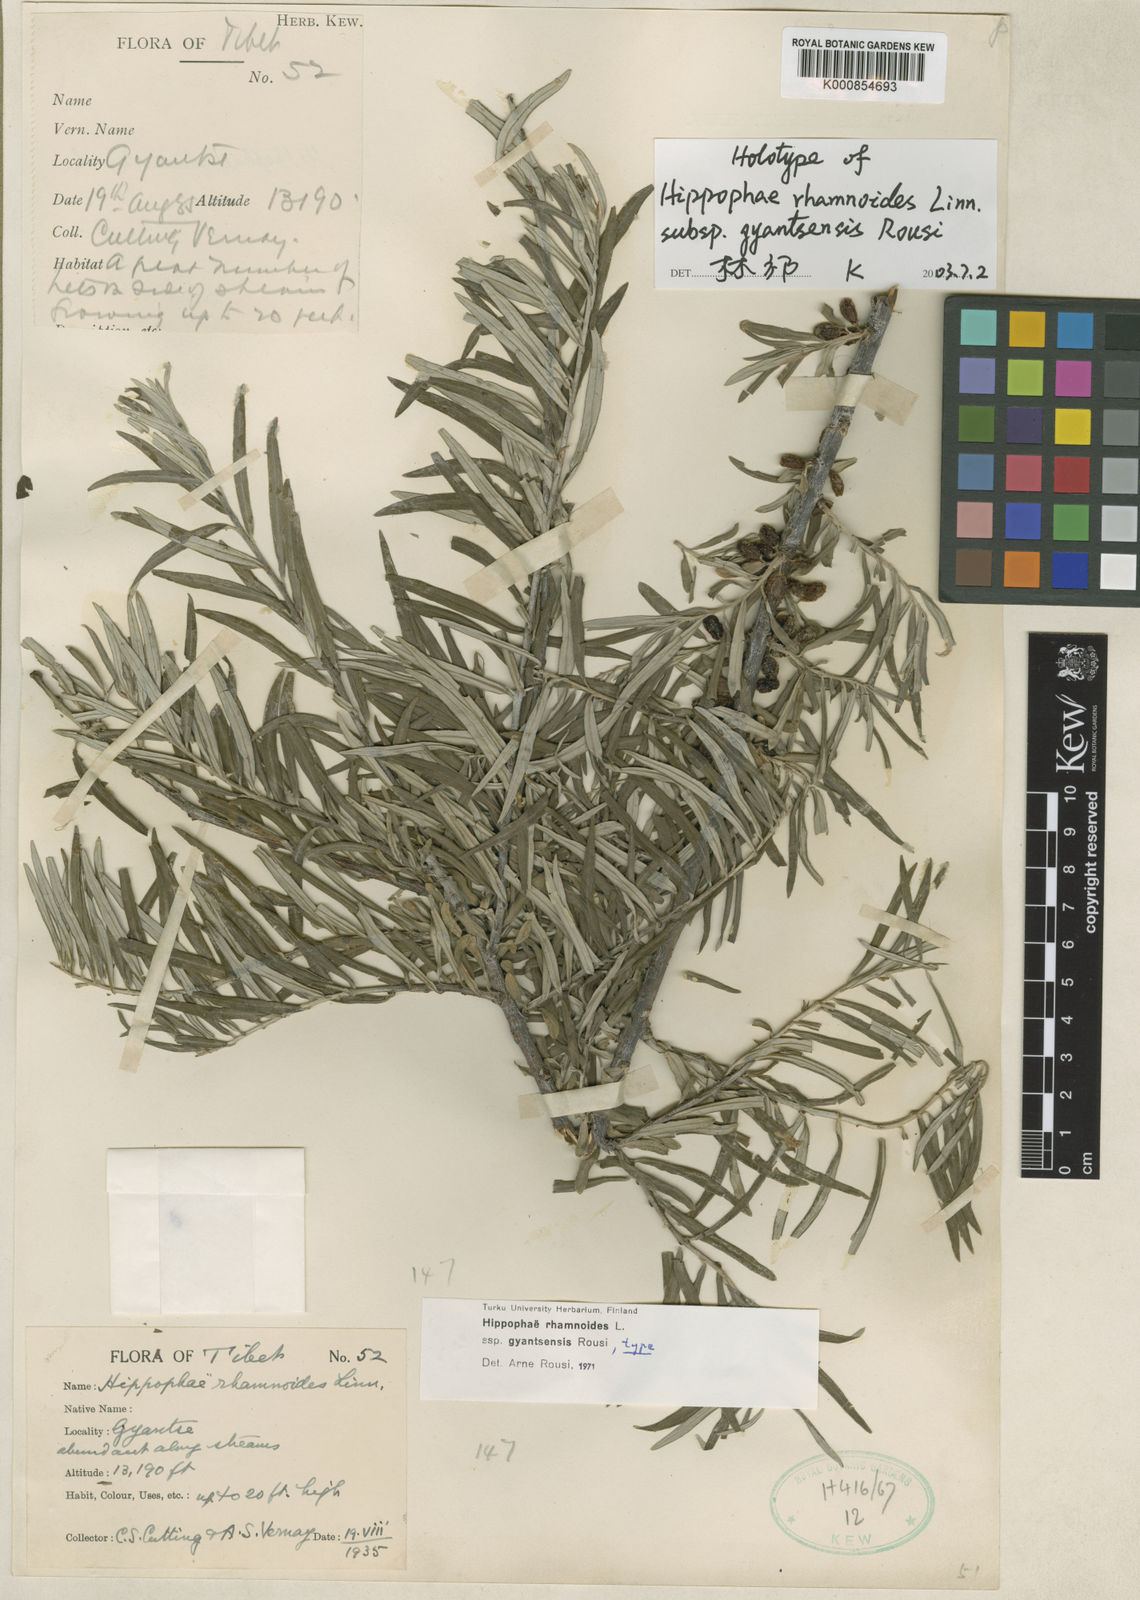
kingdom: Plantae
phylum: Tracheophyta
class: Magnoliopsida
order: Rosales
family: Elaeagnaceae
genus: Hippophae
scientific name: Hippophae gyantsensis
